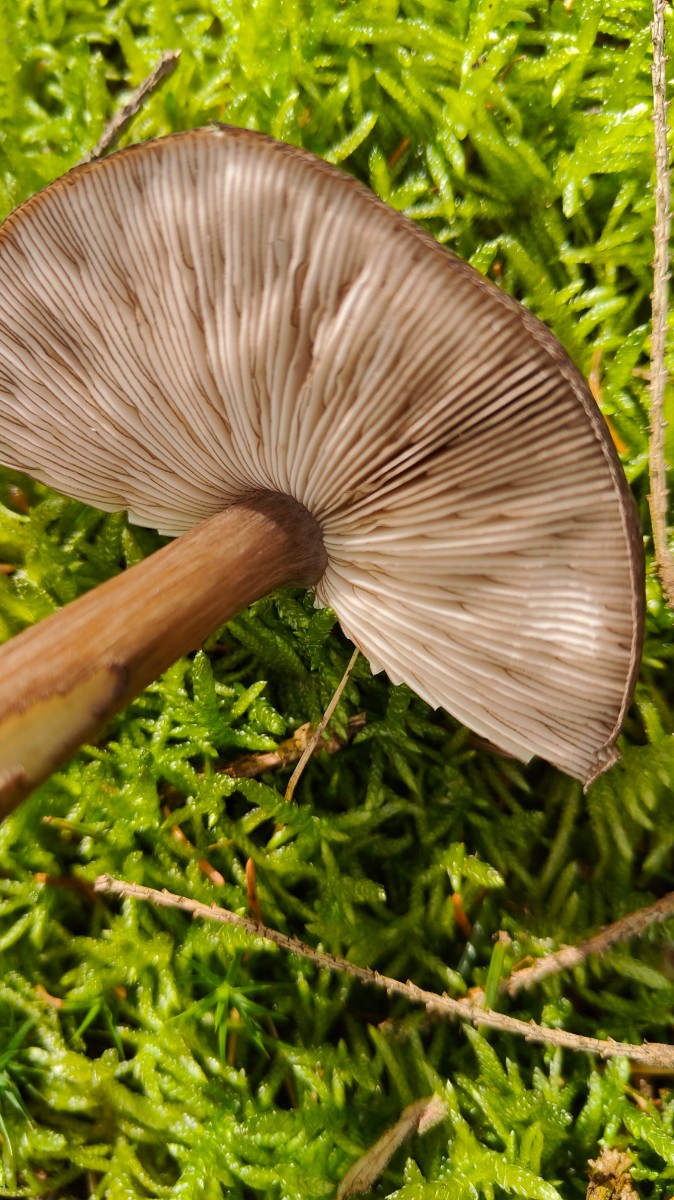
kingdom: Fungi
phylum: Basidiomycota
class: Agaricomycetes
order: Agaricales
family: Pluteaceae
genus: Pluteus
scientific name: Pluteus atromarginatus
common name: sortrandet skærmhat
